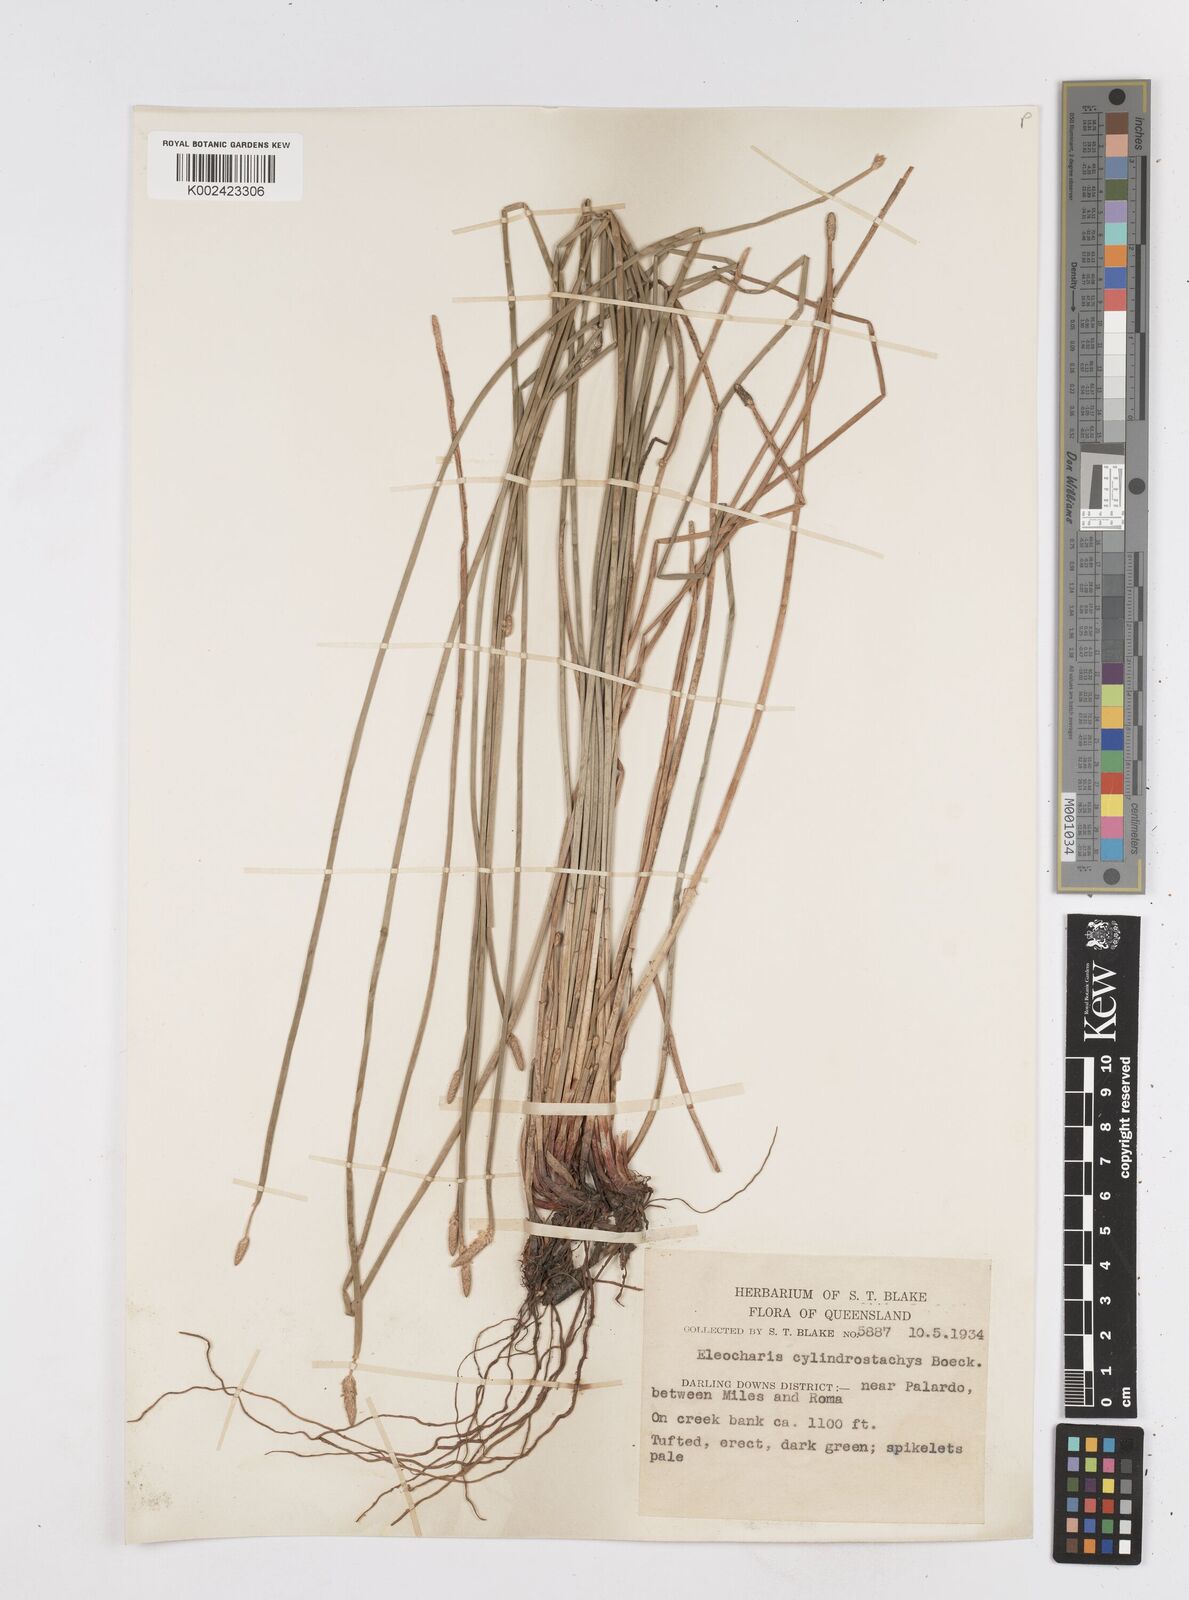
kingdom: Plantae
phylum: Tracheophyta
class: Liliopsida
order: Poales
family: Cyperaceae
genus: Eleocharis
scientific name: Eleocharis cylindrostachys
